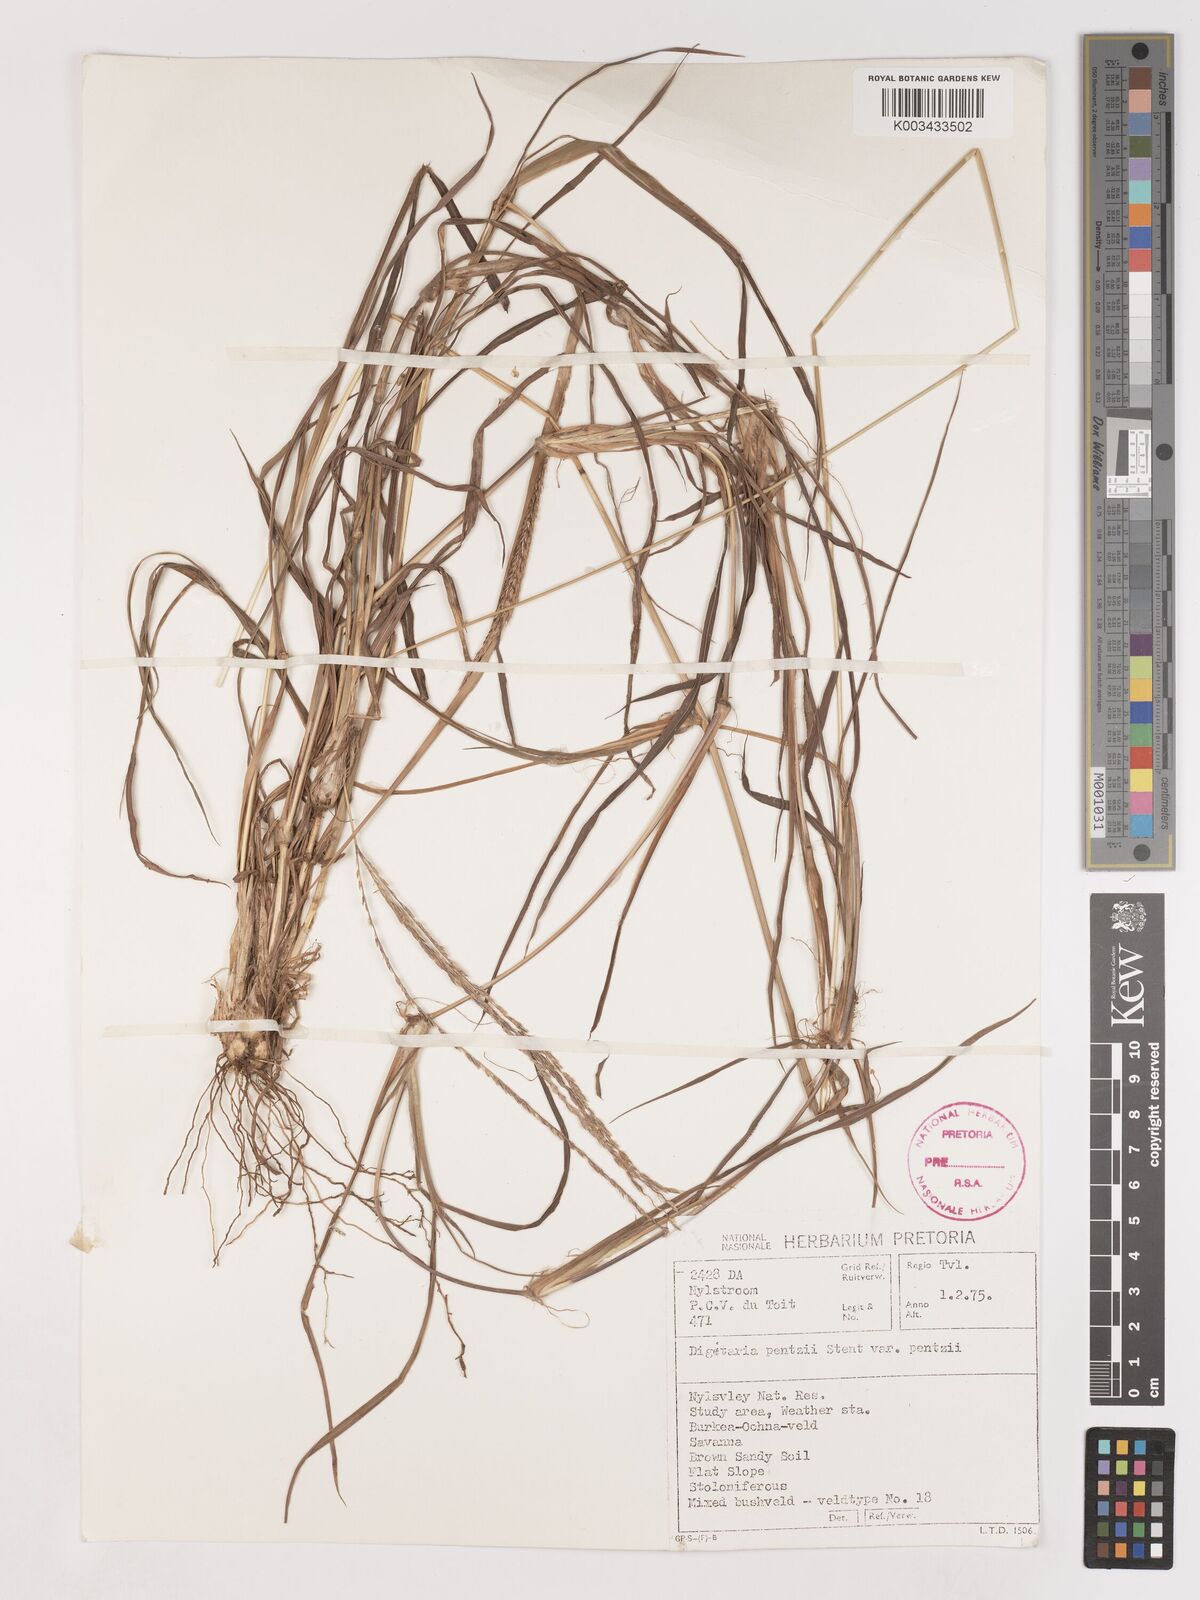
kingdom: Plantae
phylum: Tracheophyta
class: Liliopsida
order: Poales
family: Poaceae
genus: Digitaria
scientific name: Digitaria eriantha
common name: Digitgrass
